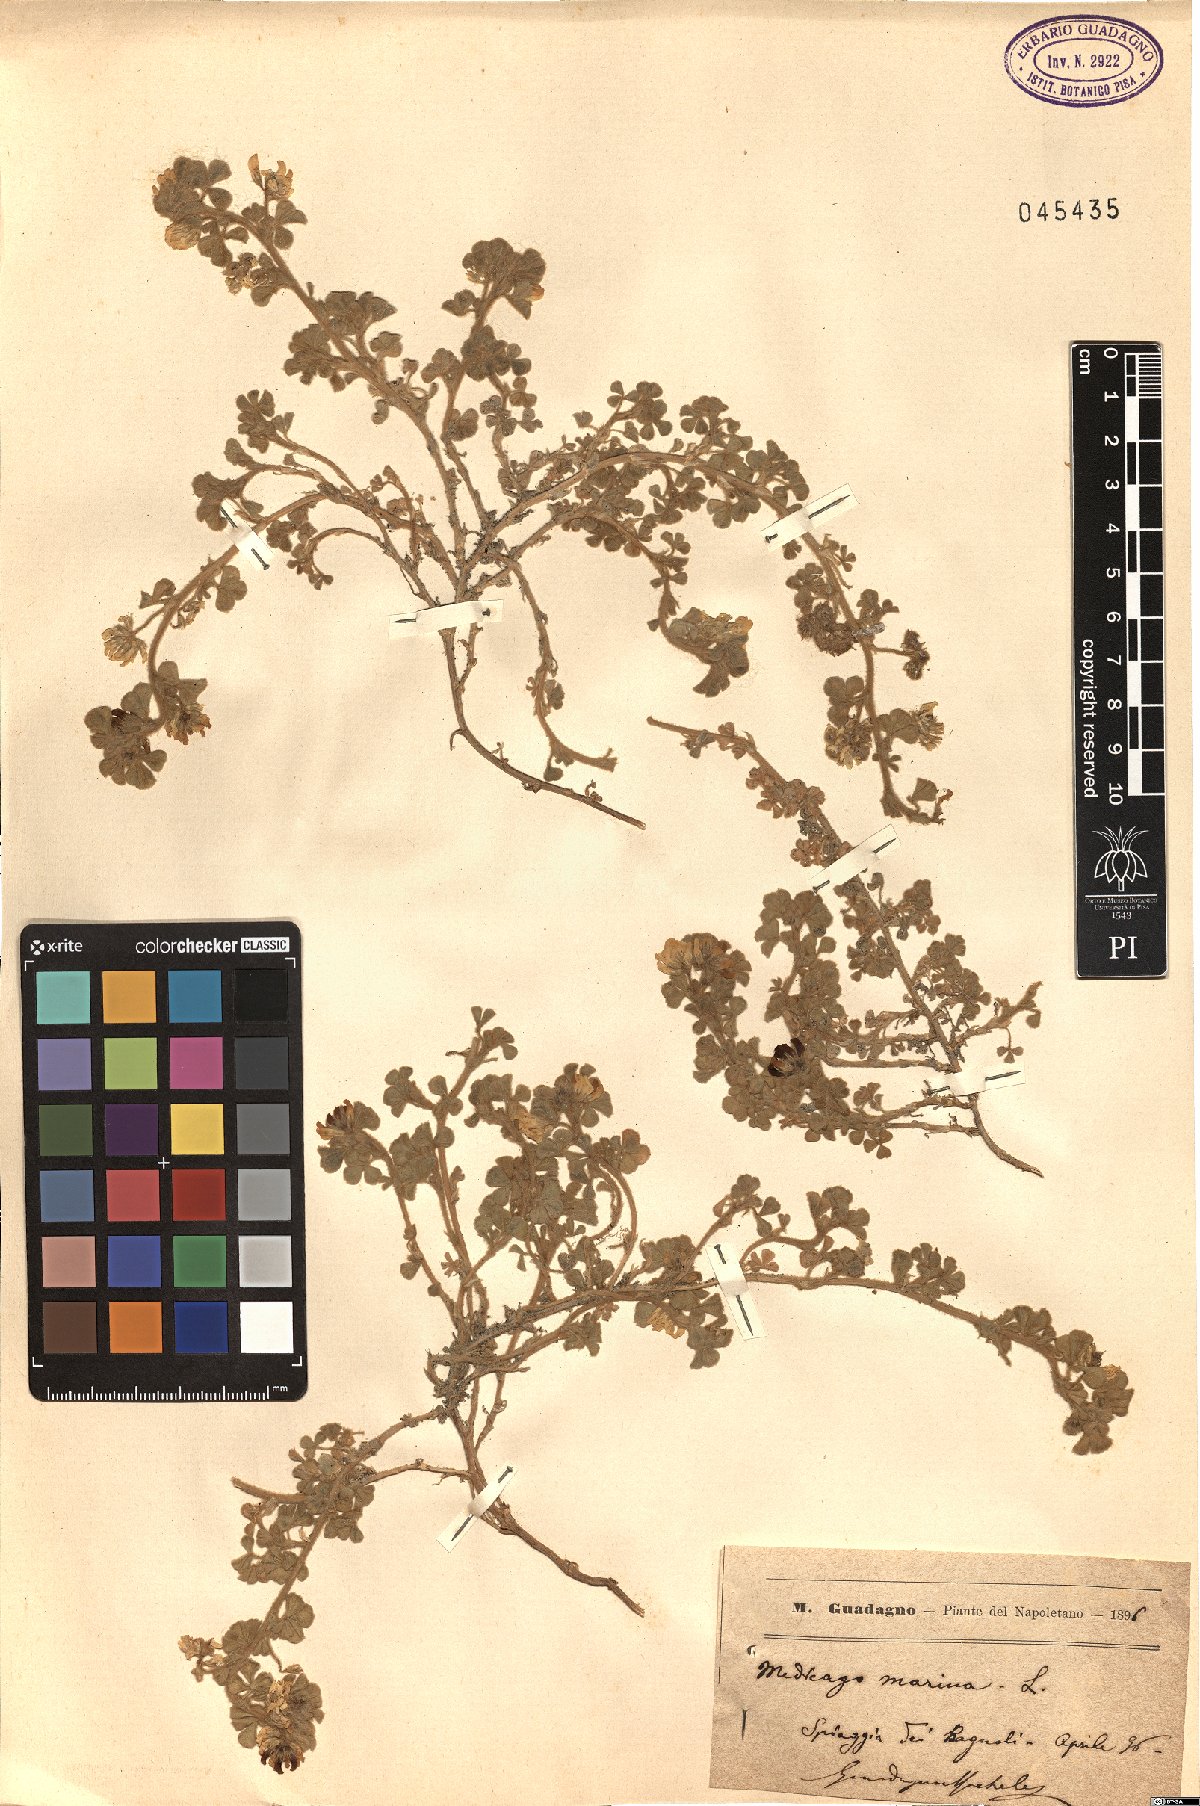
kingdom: Plantae
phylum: Tracheophyta
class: Magnoliopsida
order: Fabales
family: Fabaceae
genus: Medicago
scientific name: Medicago marina
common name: Sea medick
